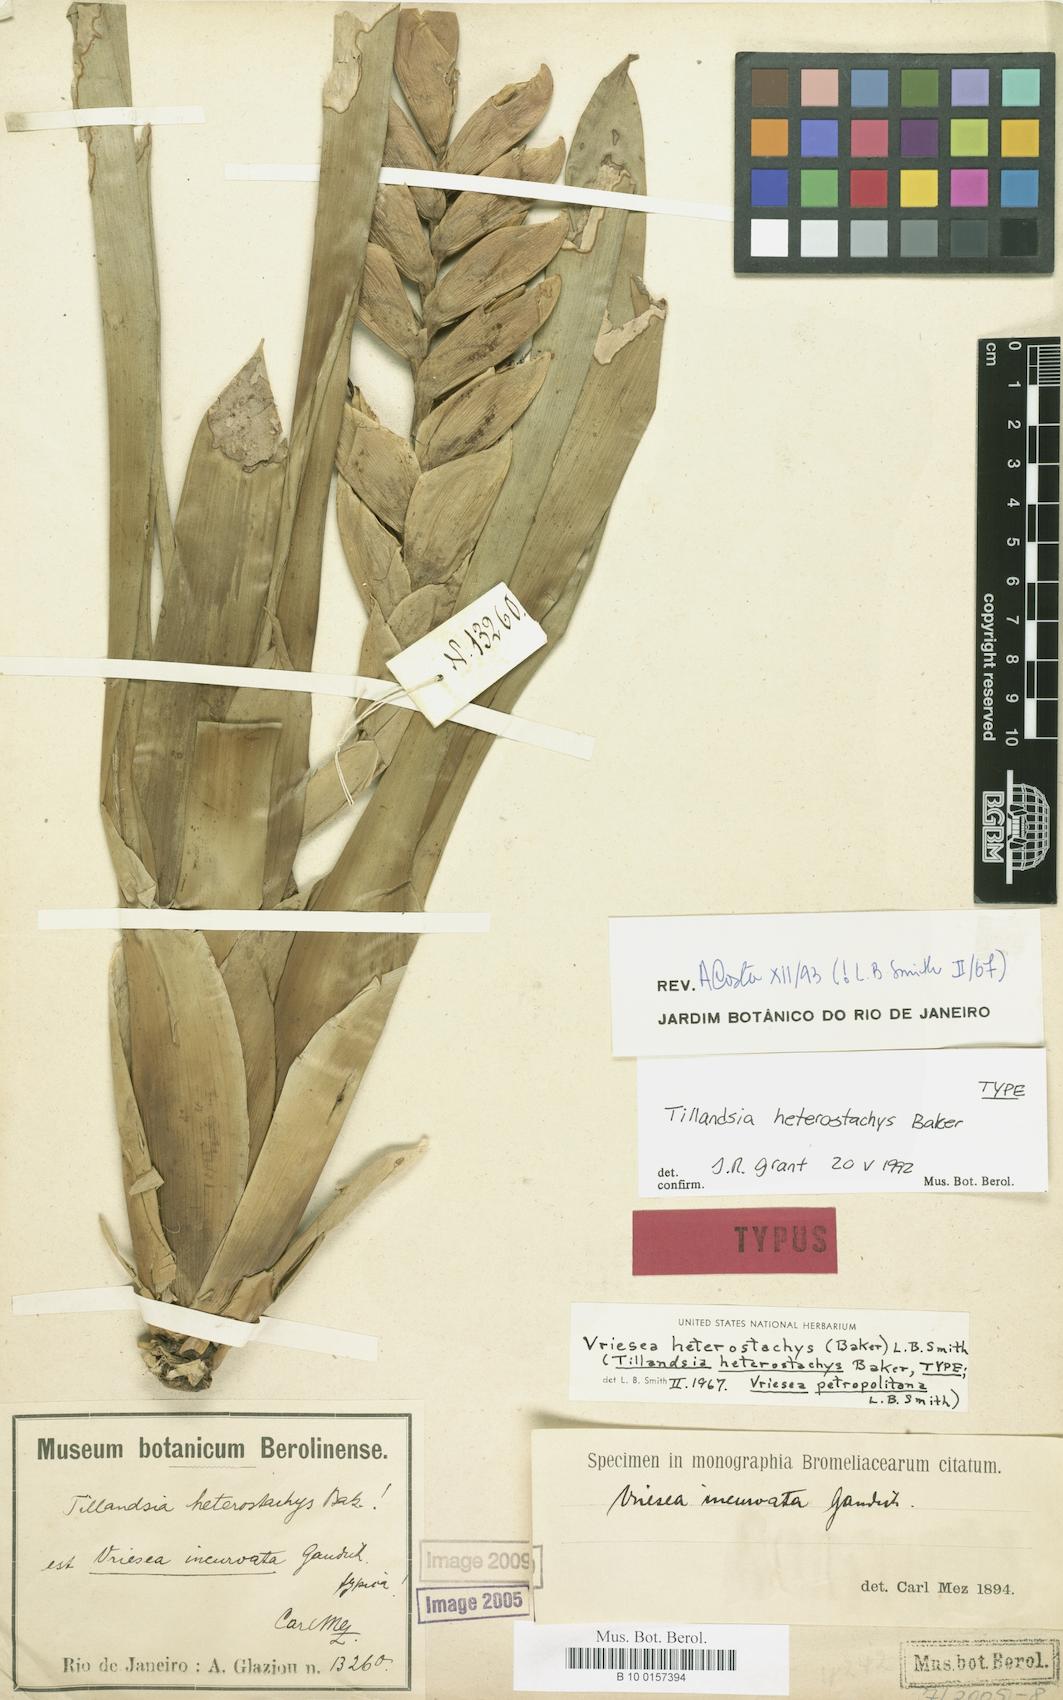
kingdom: Plantae
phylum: Tracheophyta
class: Liliopsida
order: Poales
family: Bromeliaceae
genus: Vriesea
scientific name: Vriesea heterostachys
